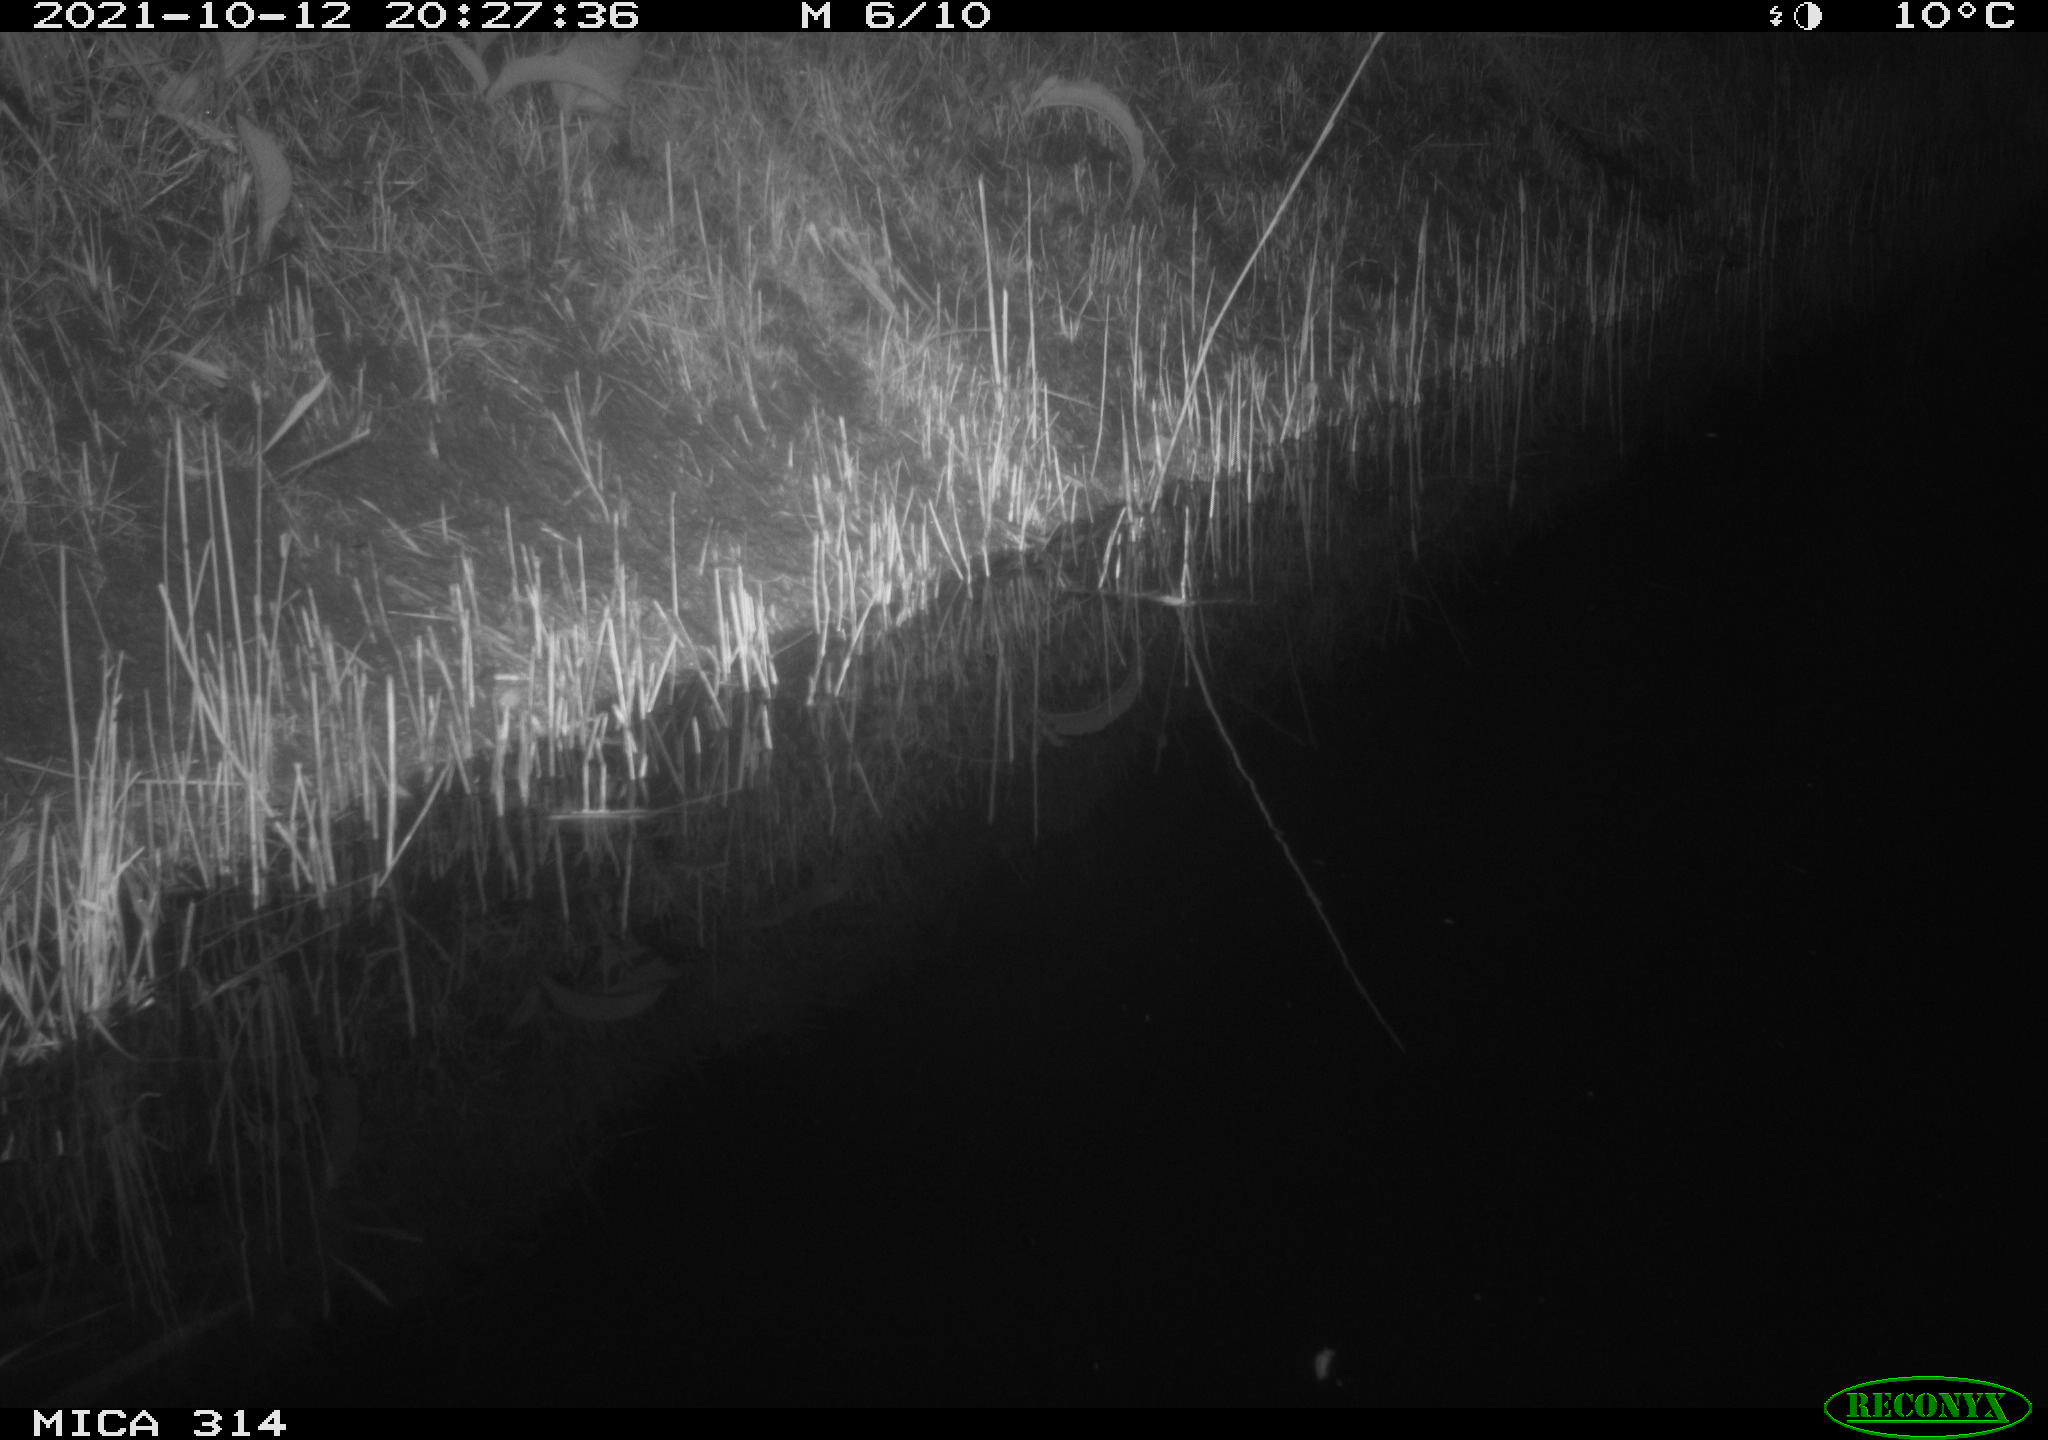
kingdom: Animalia
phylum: Chordata
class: Mammalia
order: Rodentia
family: Muridae
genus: Rattus
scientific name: Rattus norvegicus
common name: Brown rat
